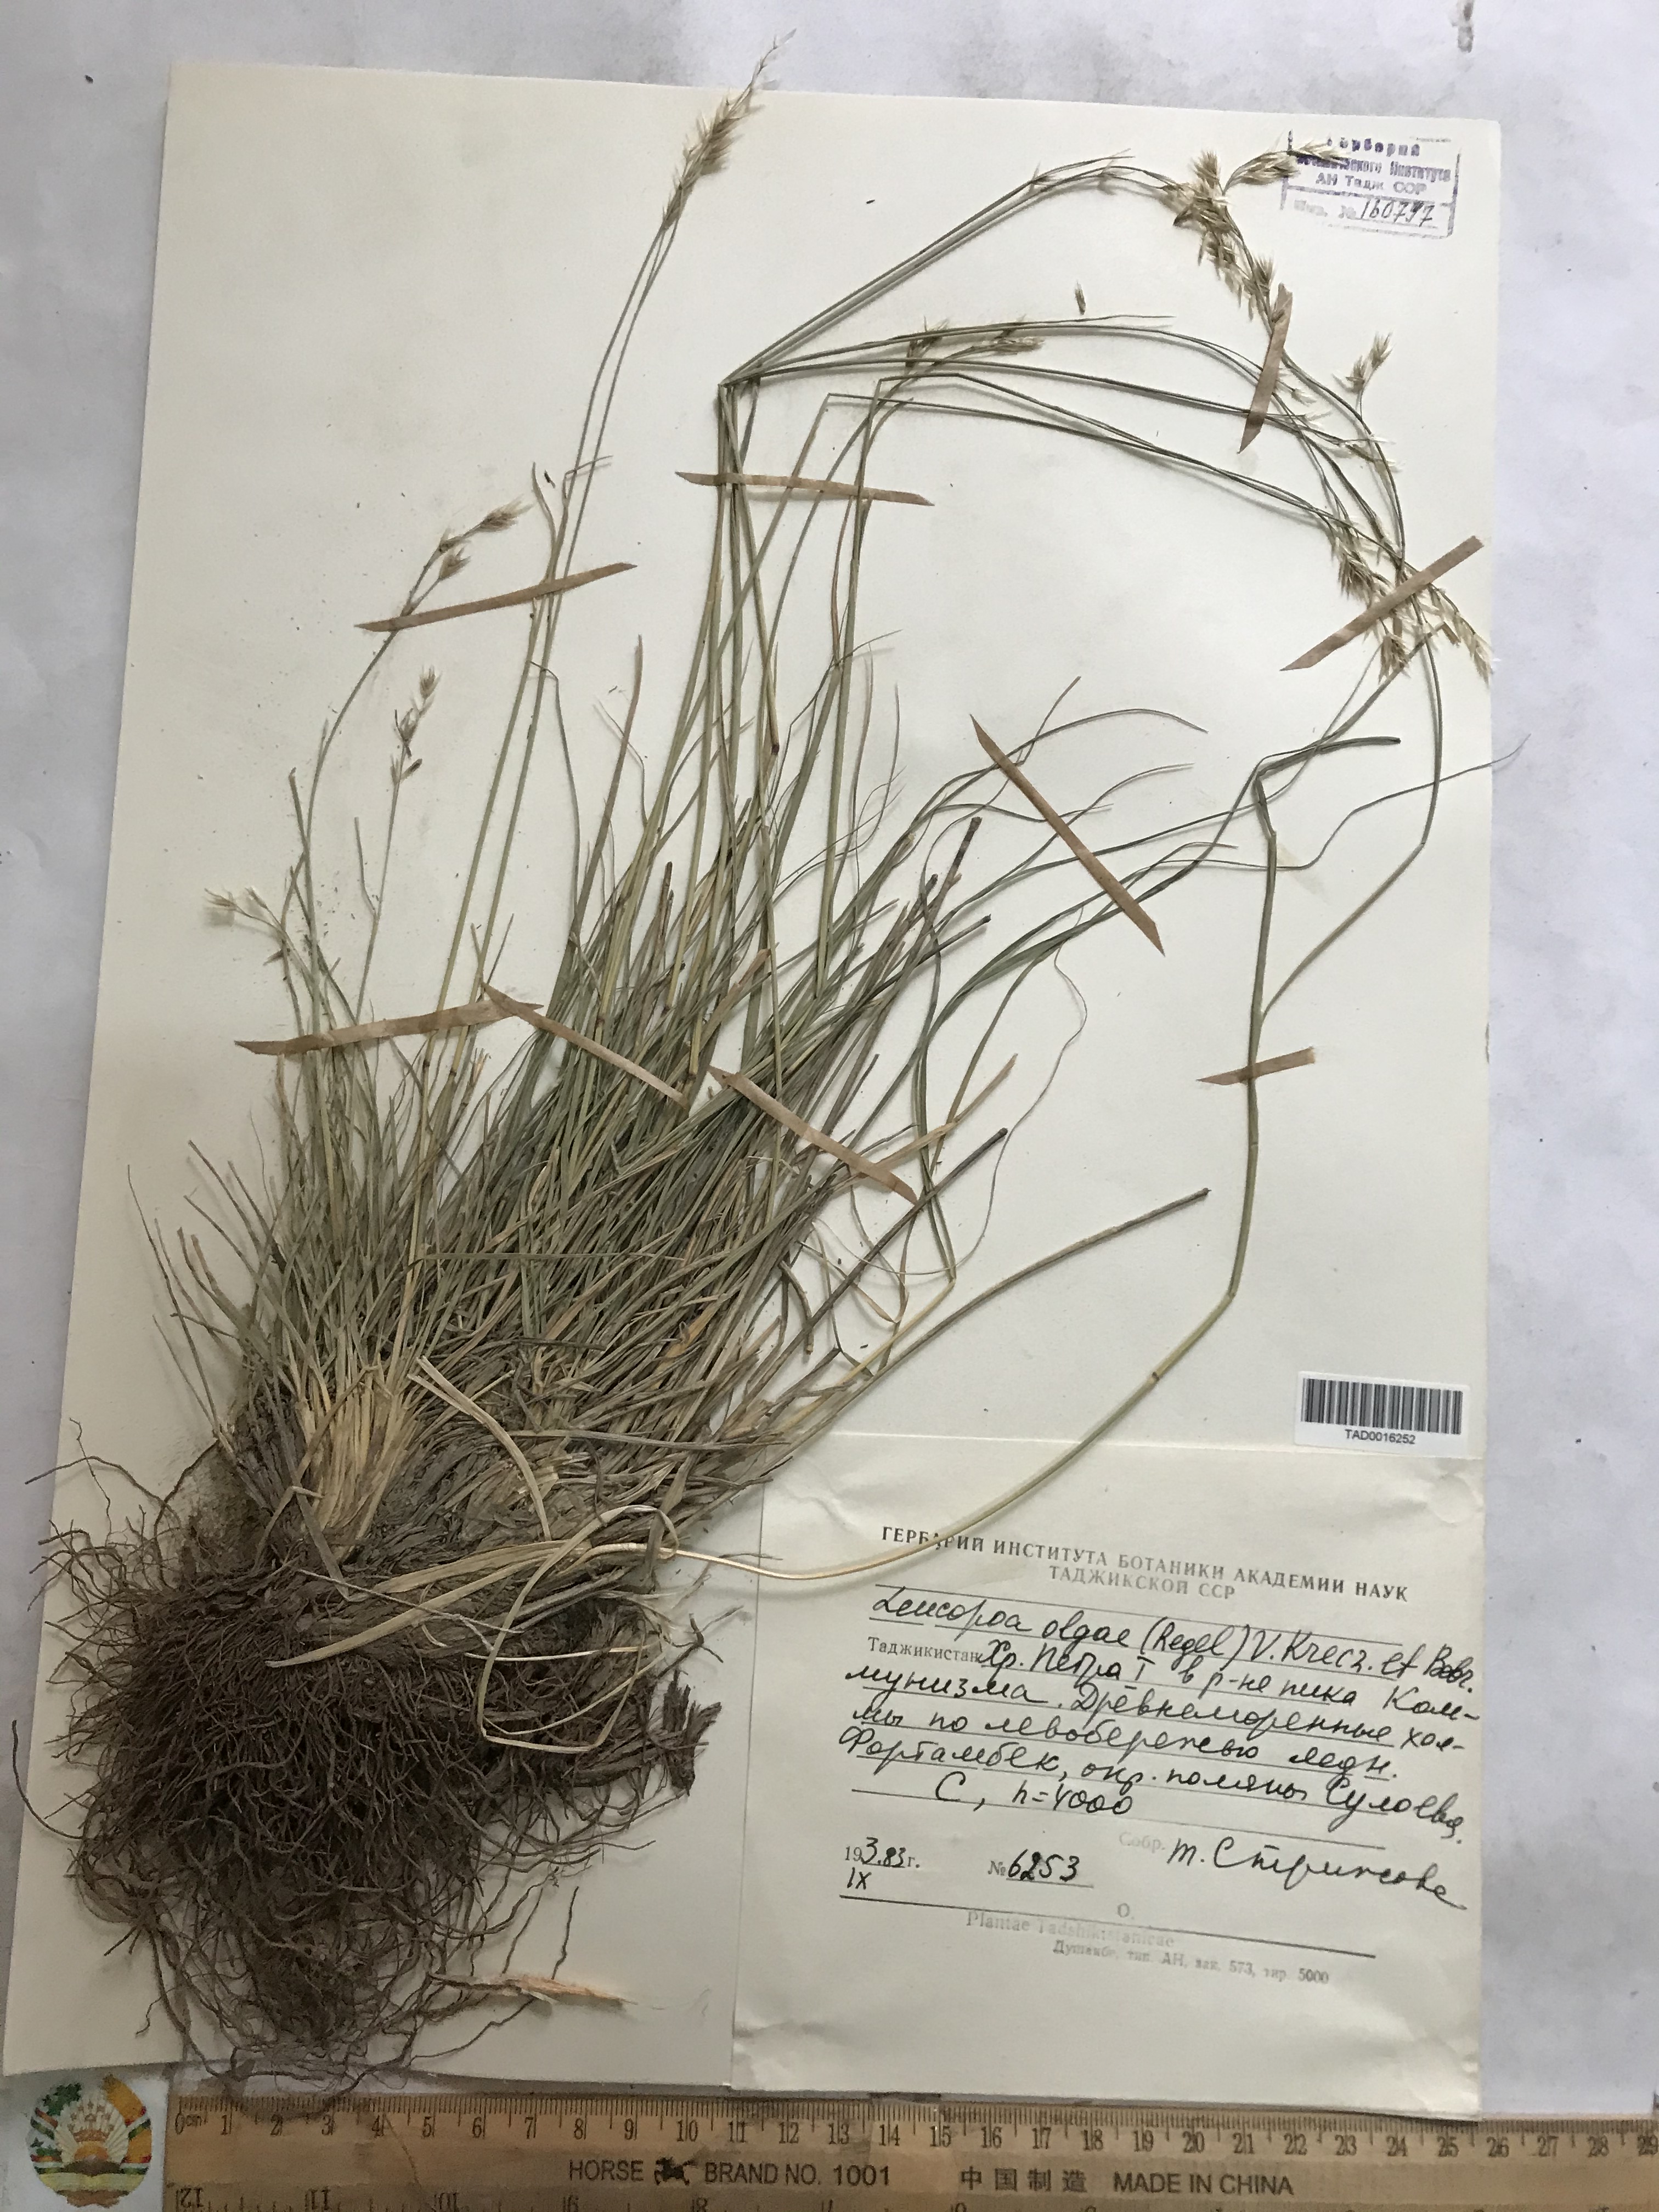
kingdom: Plantae
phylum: Tracheophyta
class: Liliopsida
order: Poales
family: Poaceae
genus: Festuca
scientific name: Festuca
